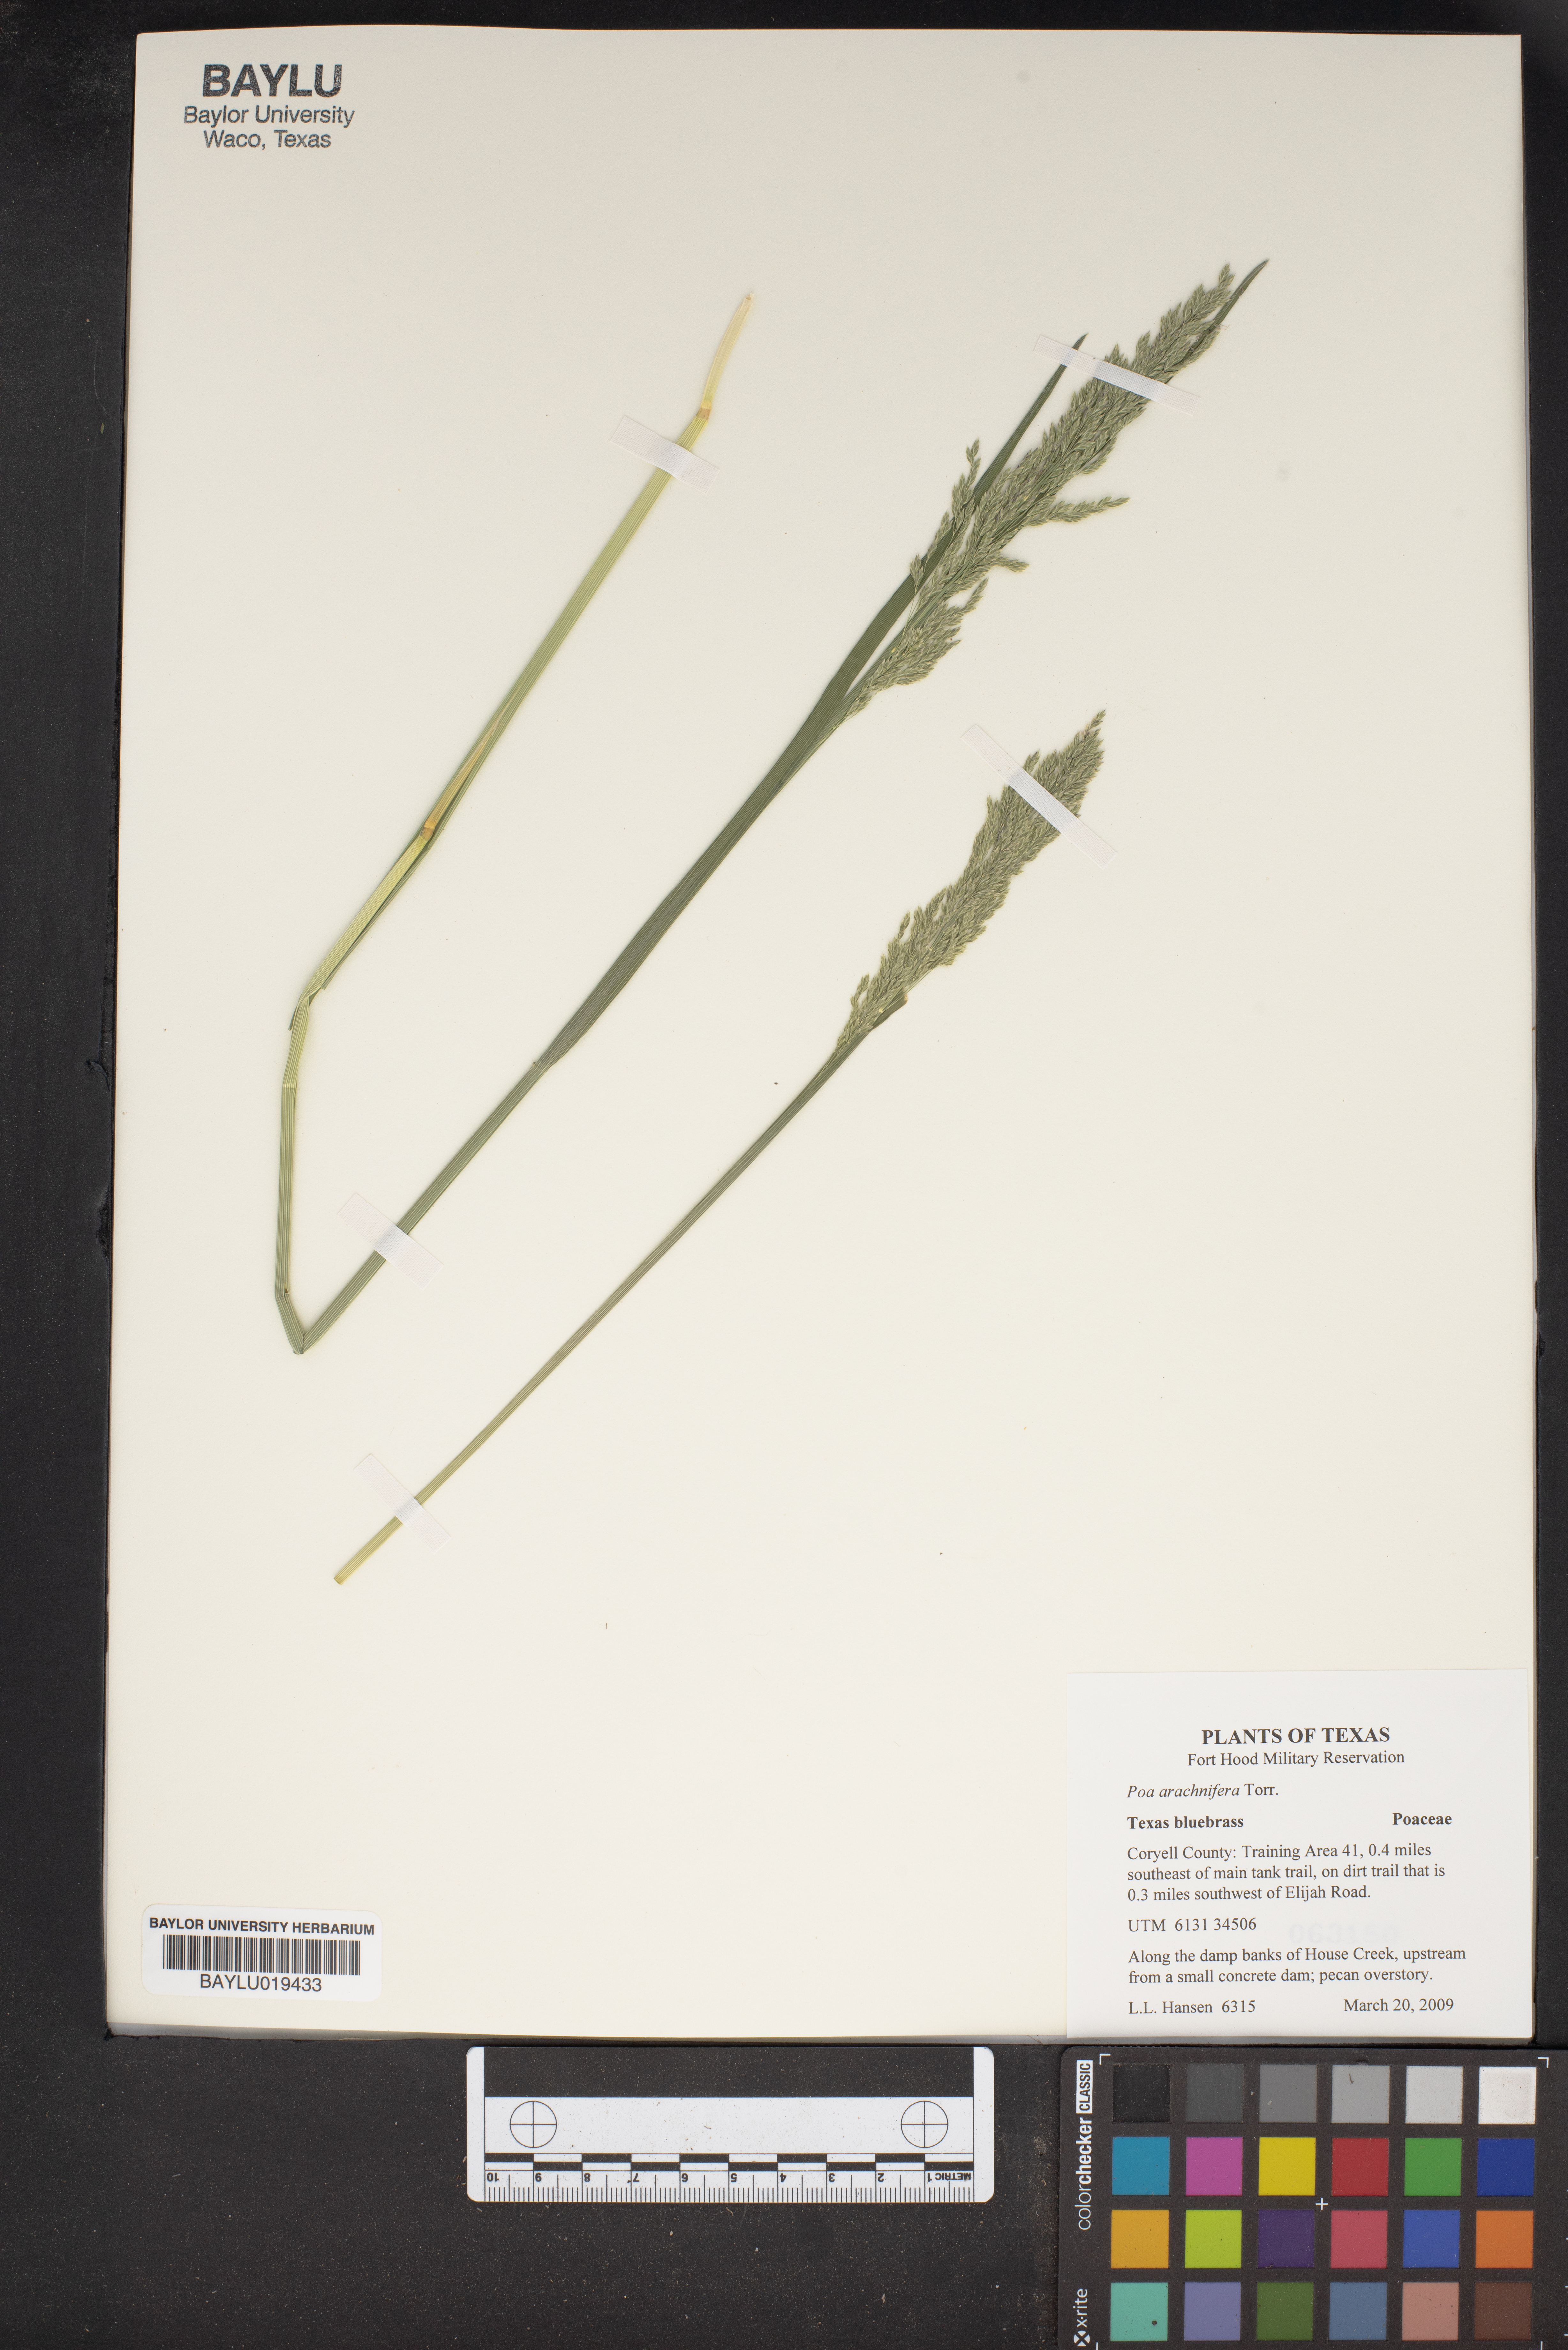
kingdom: Plantae
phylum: Tracheophyta
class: Liliopsida
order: Poales
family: Poaceae
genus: Poa
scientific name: Poa arachnifera
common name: Texas bluegrass
